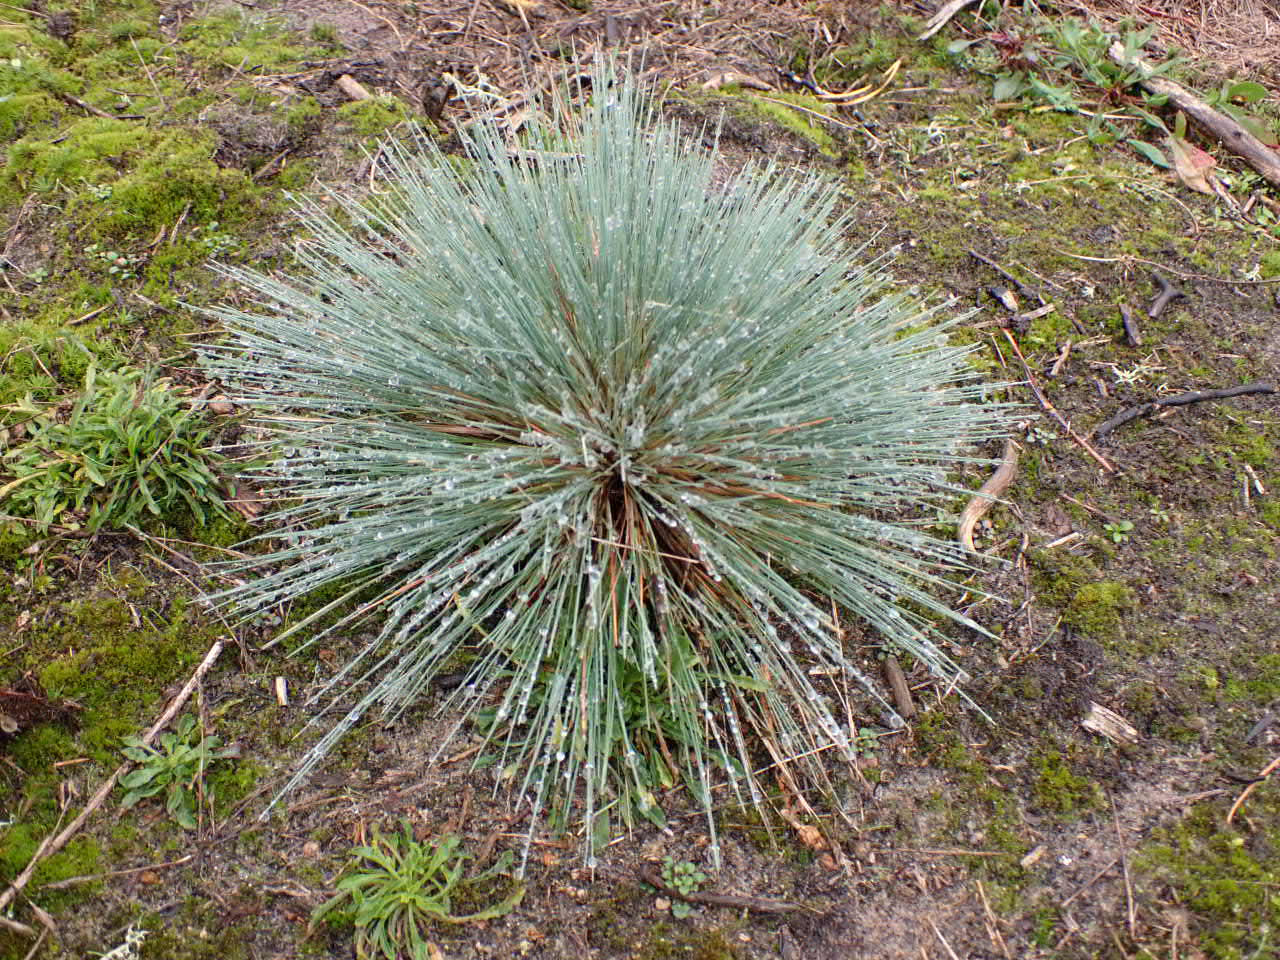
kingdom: Plantae
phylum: Tracheophyta
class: Liliopsida
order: Poales
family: Poaceae
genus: Corynephorus
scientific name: Corynephorus canescens
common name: Sandskæg
